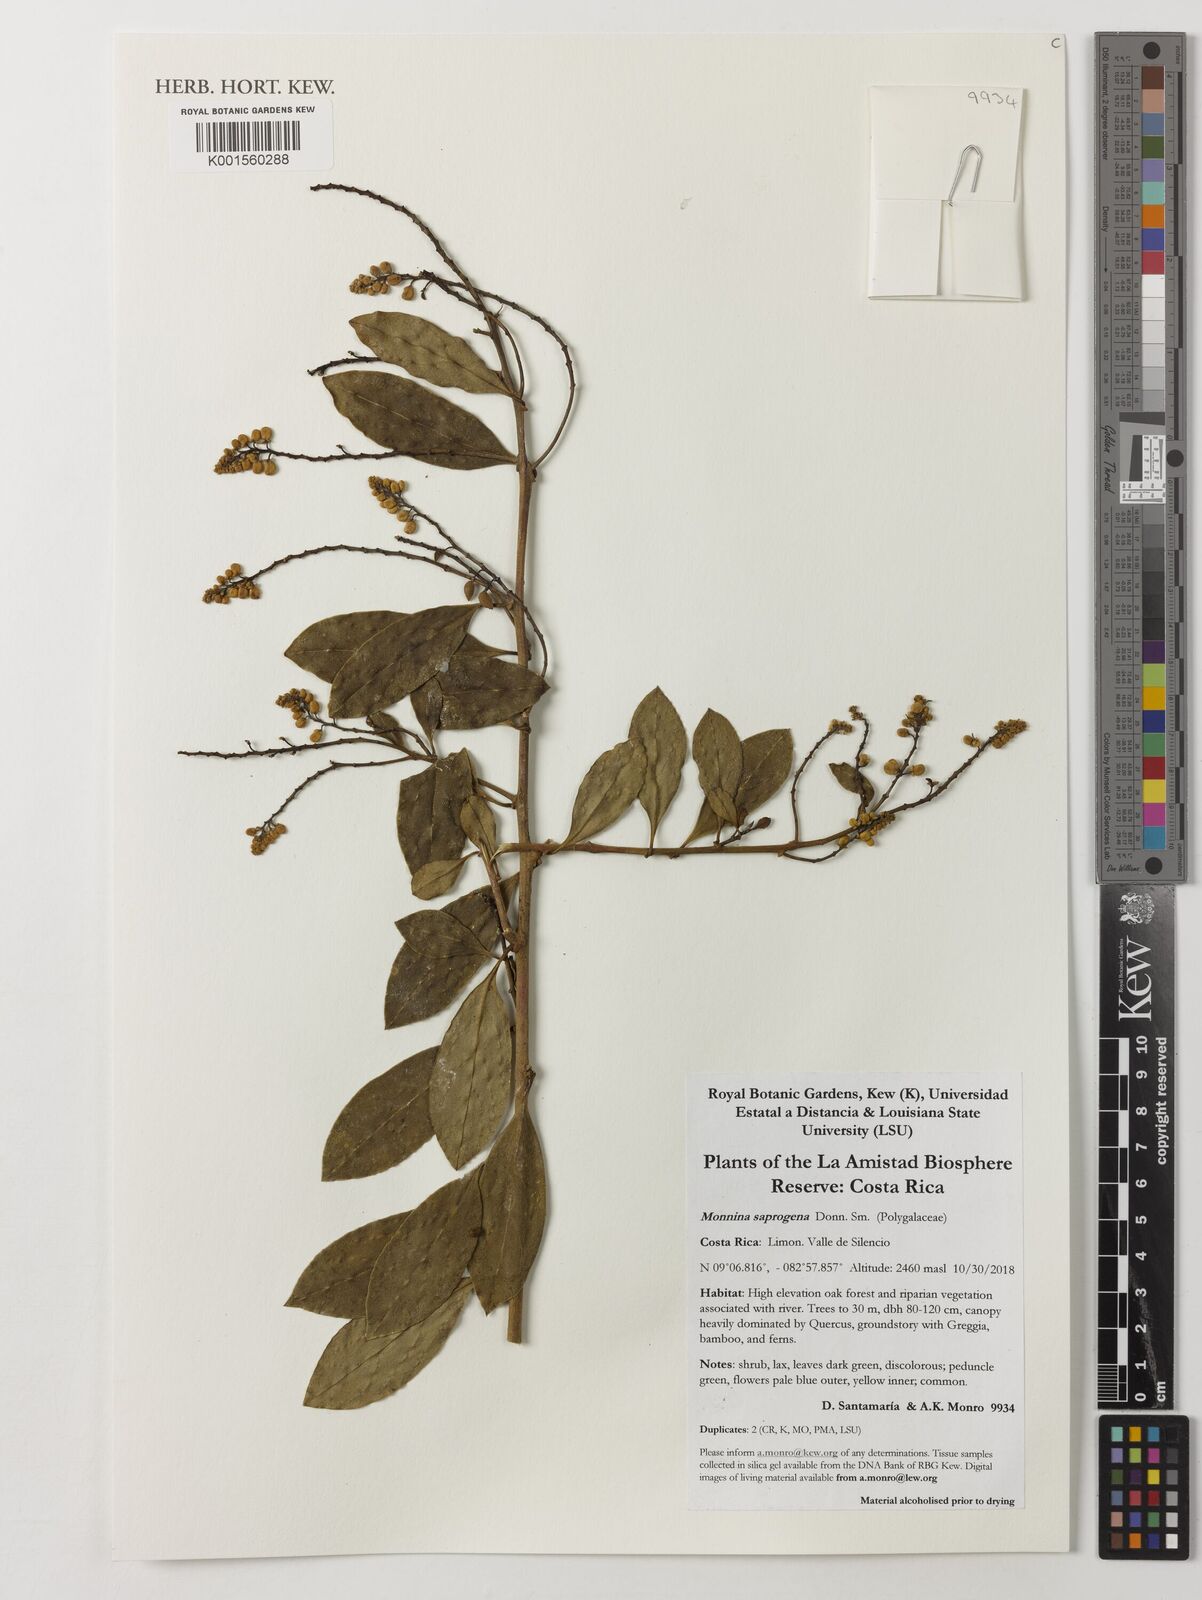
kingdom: Plantae
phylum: Tracheophyta
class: Magnoliopsida
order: Fabales
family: Polygalaceae
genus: Monnina
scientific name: Monnina saprogena
